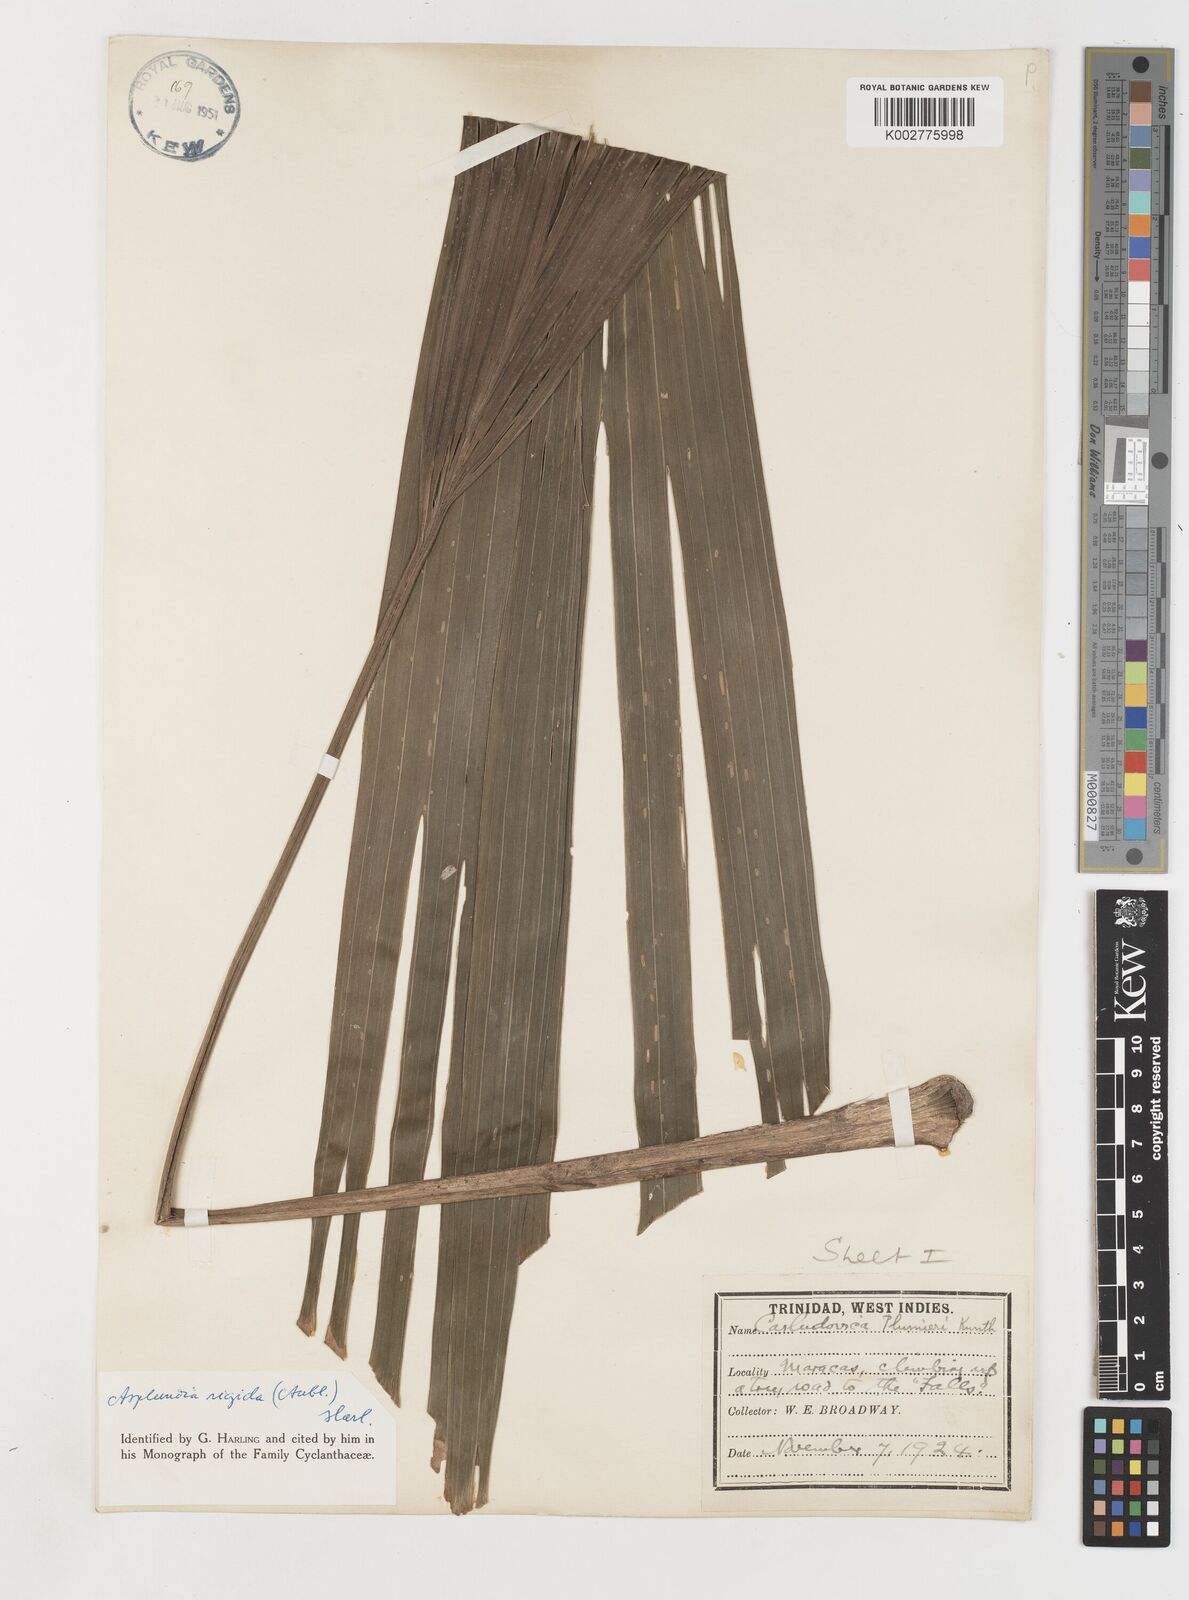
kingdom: Plantae
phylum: Tracheophyta
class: Liliopsida
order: Pandanales
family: Cyclanthaceae
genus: Asplundia
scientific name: Asplundia rigida
